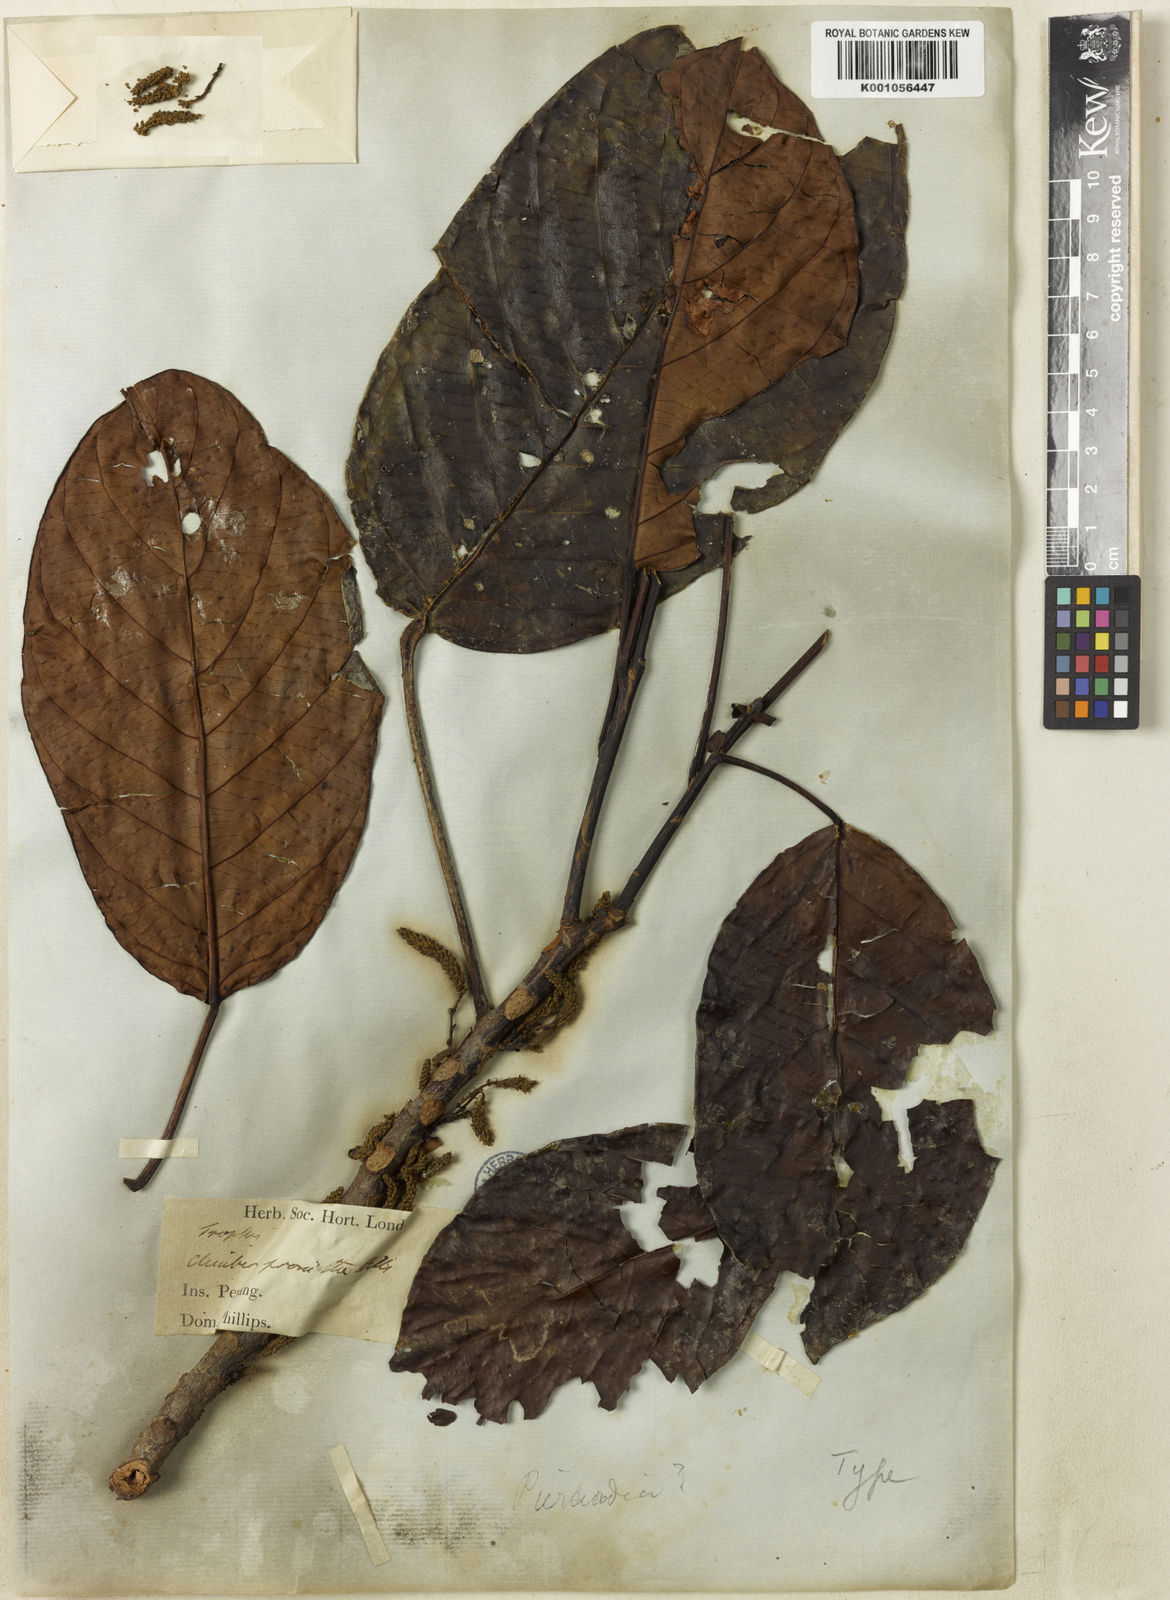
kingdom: Plantae
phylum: Tracheophyta
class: Magnoliopsida
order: Malpighiales
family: Phyllanthaceae
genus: Baccaurea
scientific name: Baccaurea
